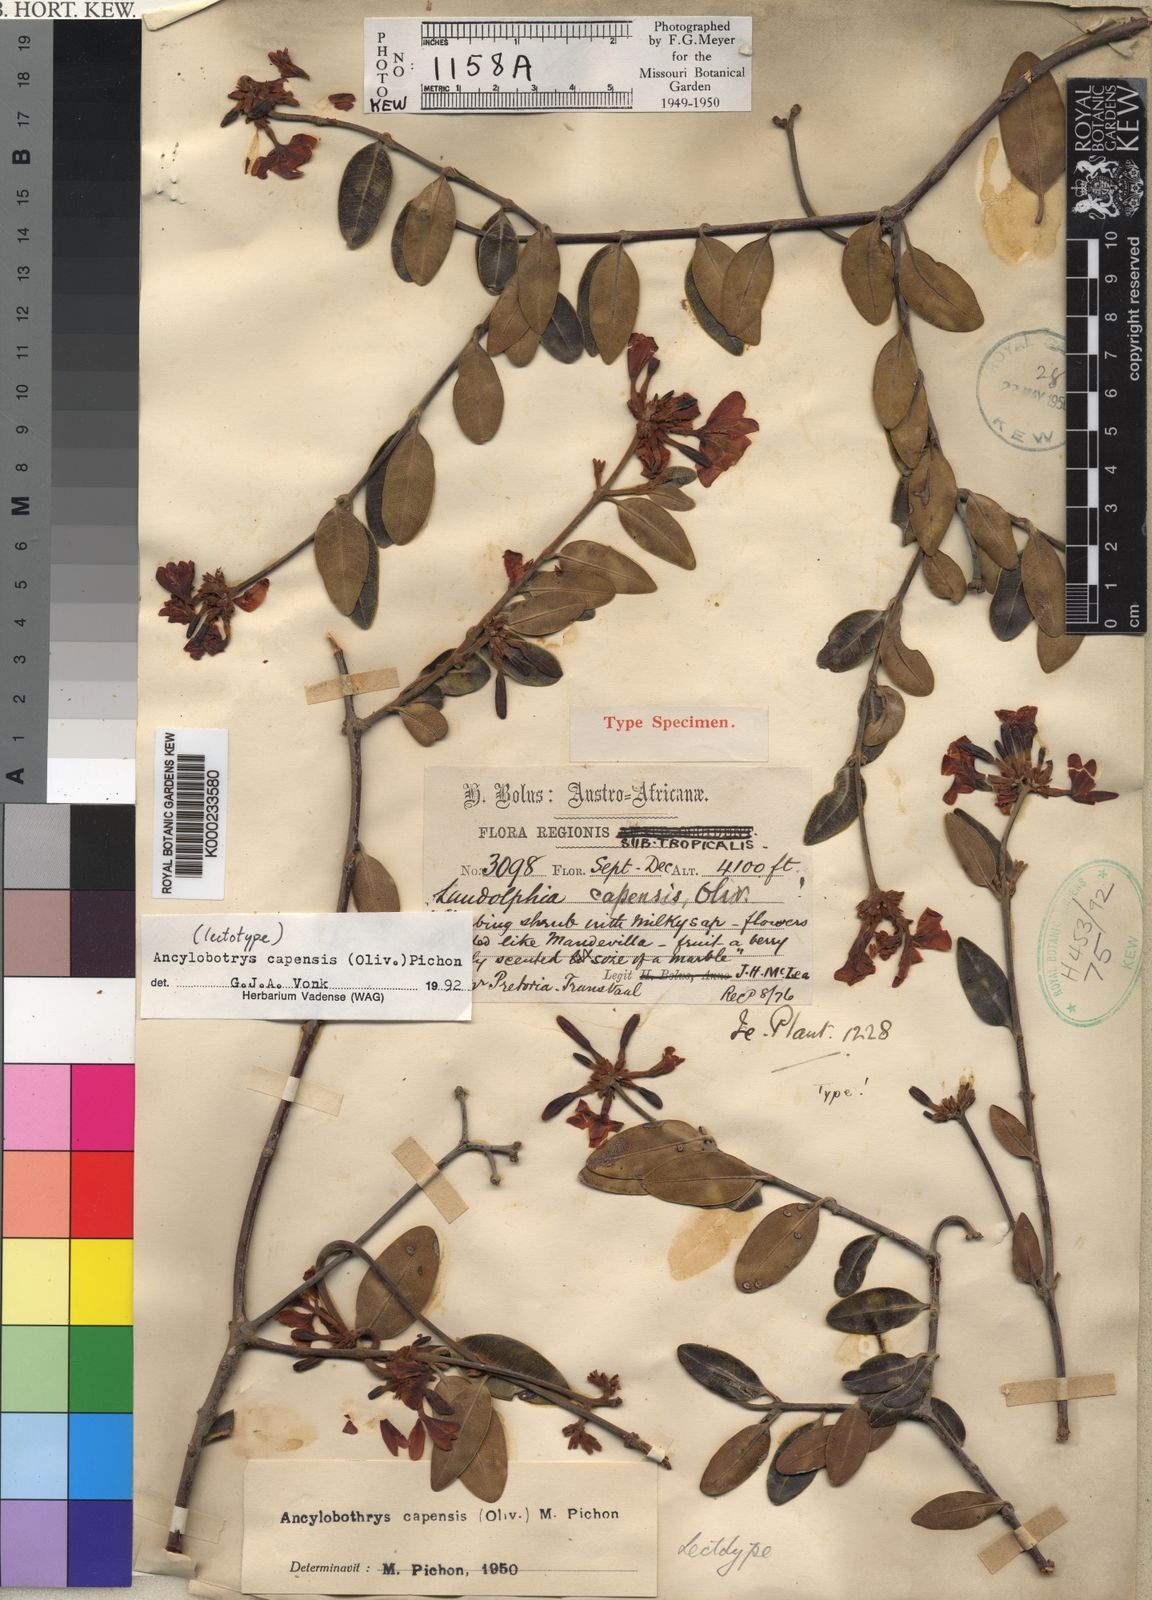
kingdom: Plantae
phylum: Tracheophyta
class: Magnoliopsida
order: Gentianales
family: Apocynaceae
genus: Ancylobothrys
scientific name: Ancylobothrys capensis
